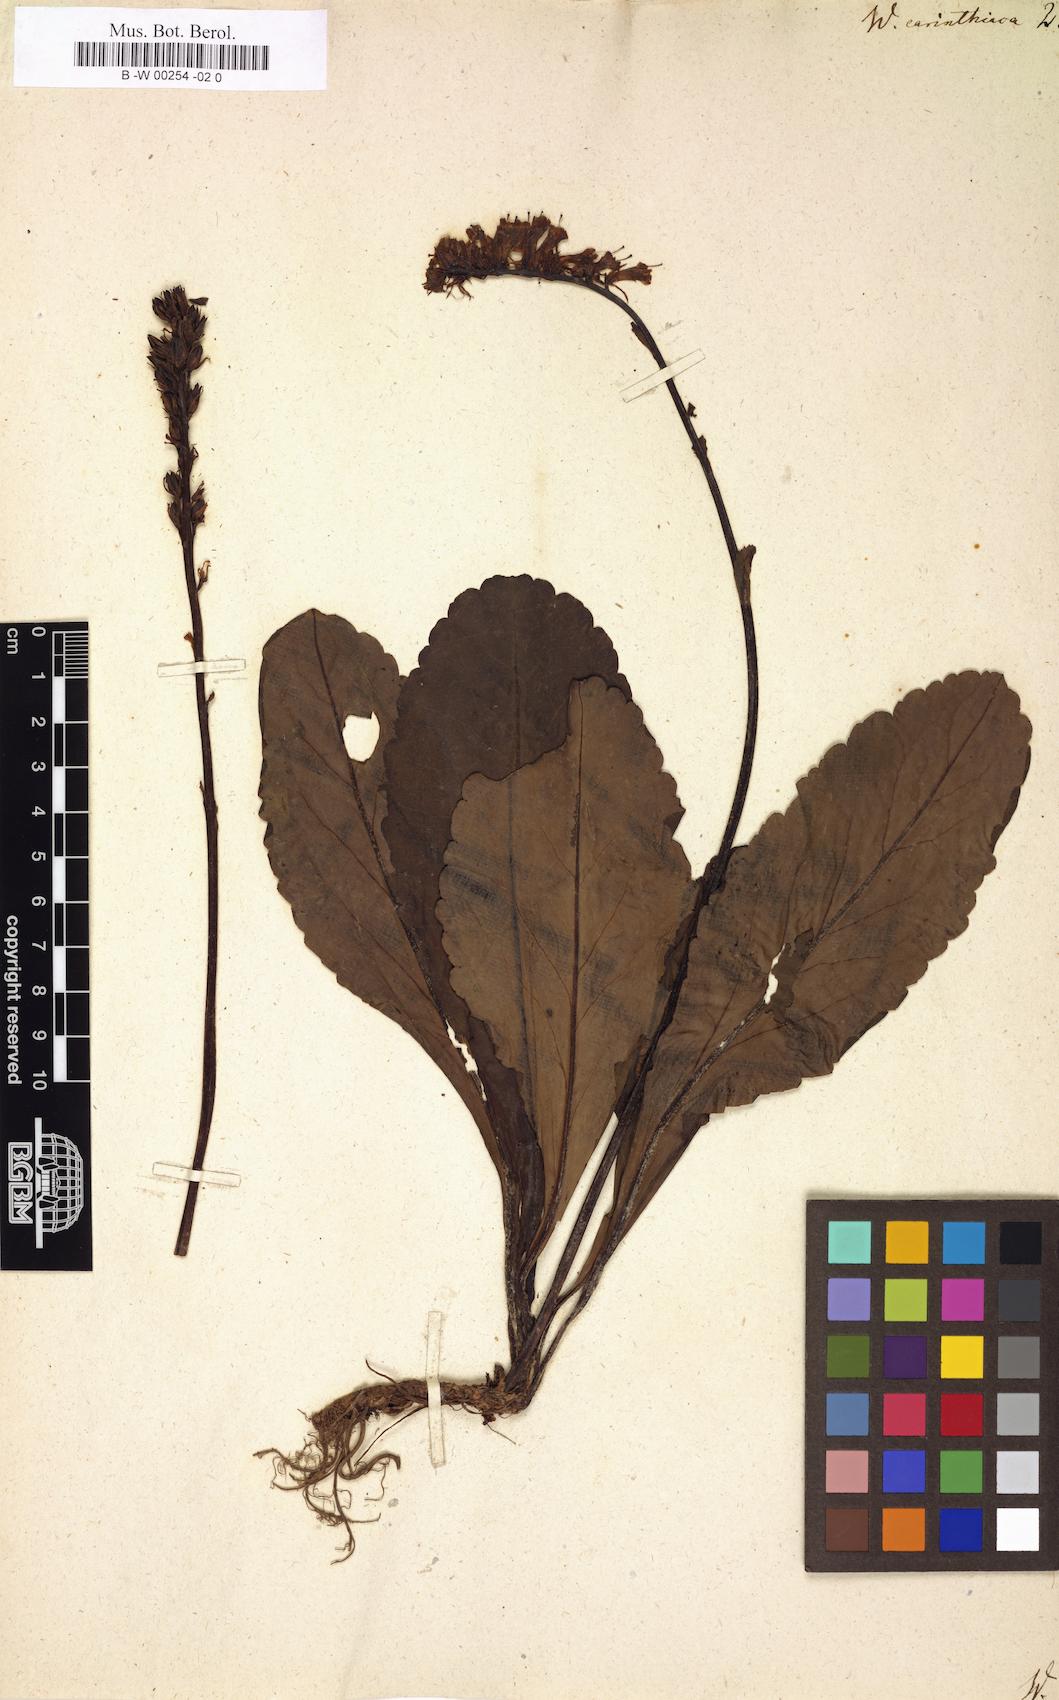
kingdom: Plantae
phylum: Tracheophyta
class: Magnoliopsida
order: Lamiales
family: Plantaginaceae
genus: Wulfenia
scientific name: Wulfenia carinthiaca
